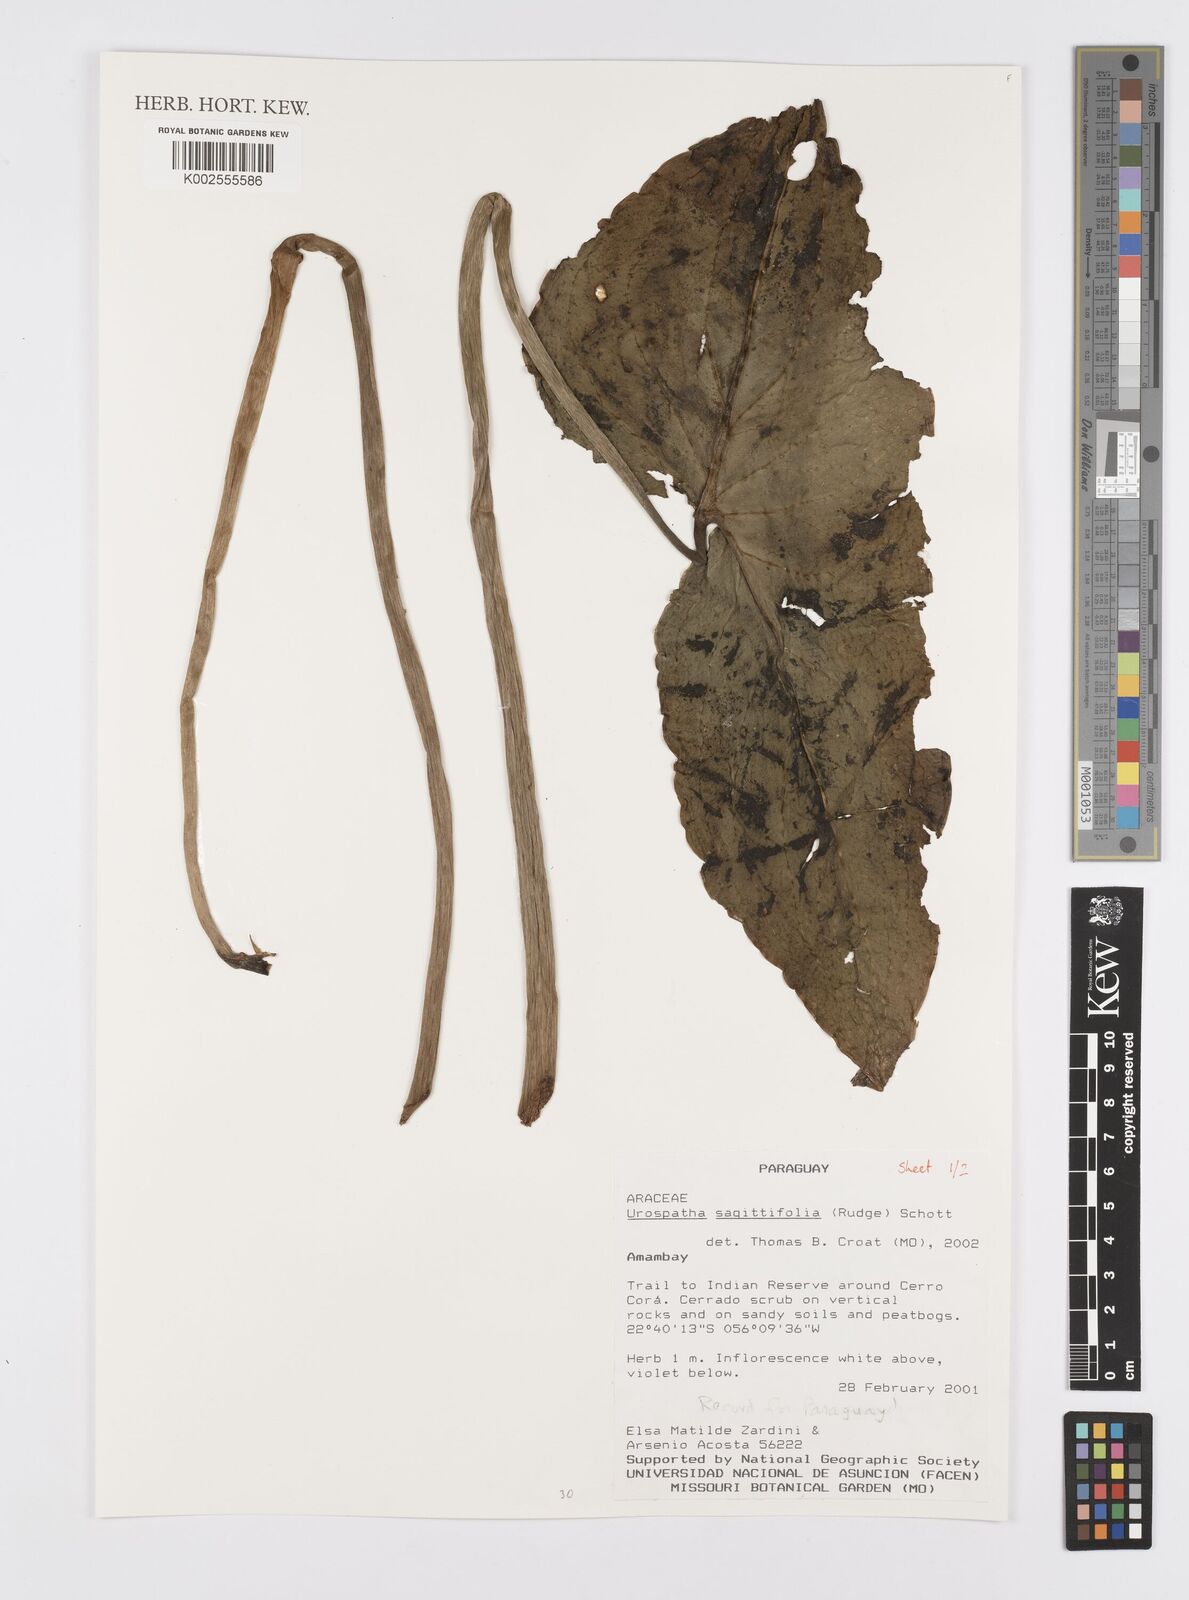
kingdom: Plantae
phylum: Tracheophyta
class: Liliopsida
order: Alismatales
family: Araceae
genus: Urospatha
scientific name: Urospatha sagittifolia
